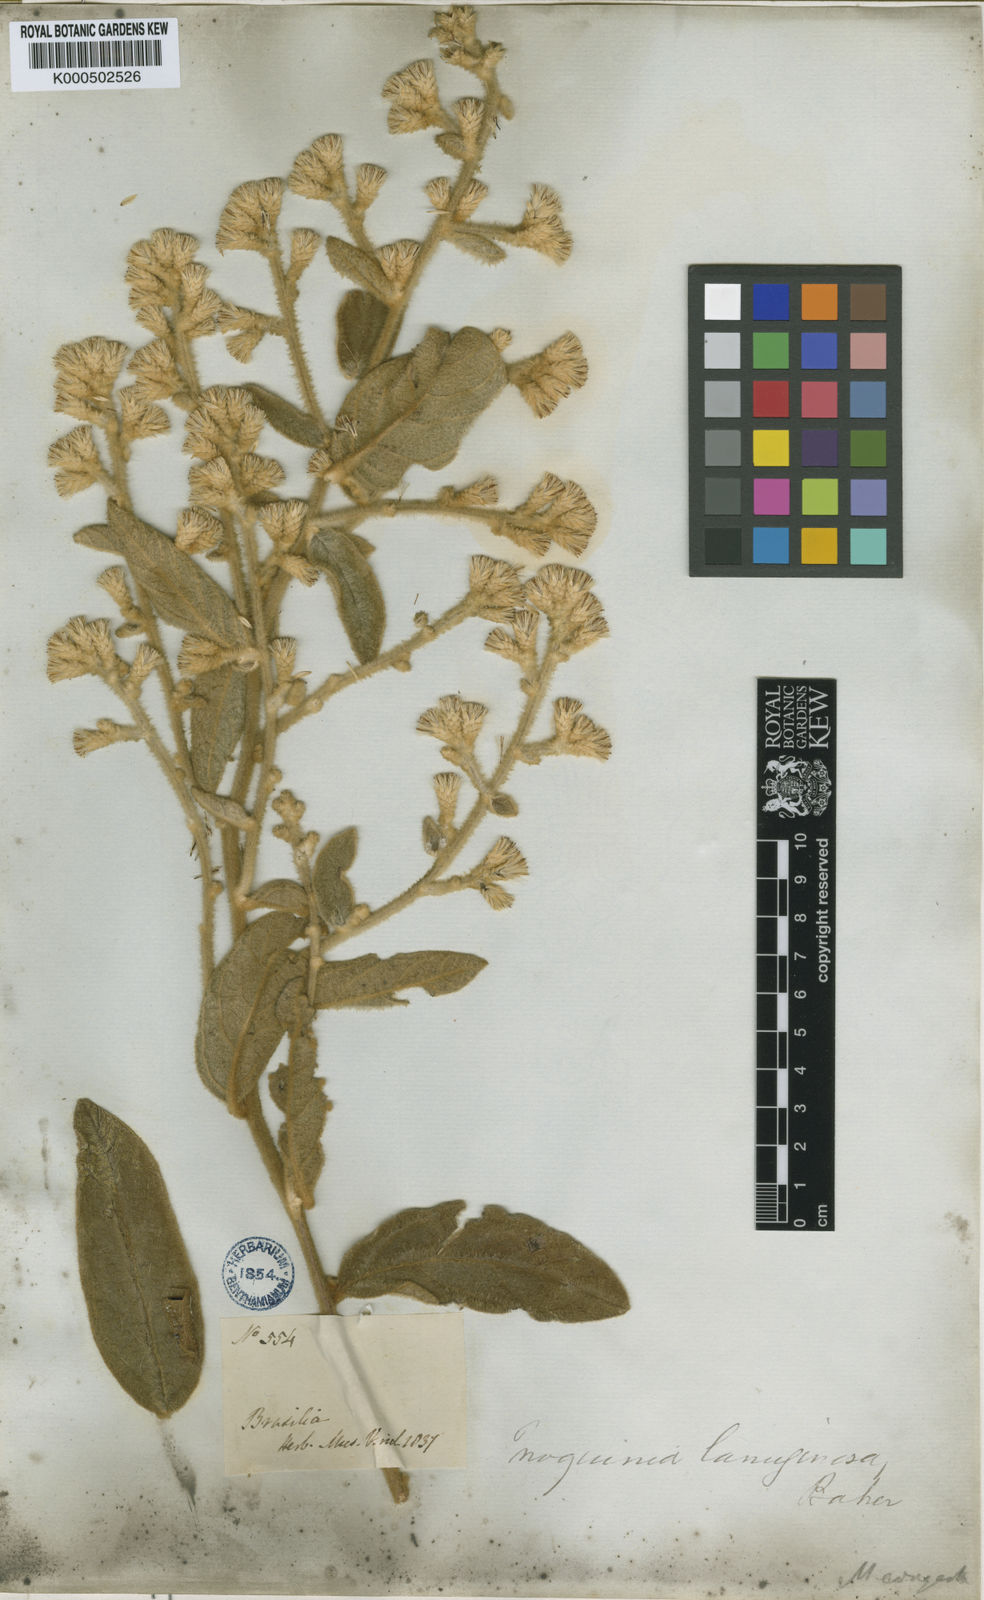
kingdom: Plantae
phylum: Tracheophyta
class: Magnoliopsida
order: Asterales
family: Asteraceae
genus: Moquiniastrum
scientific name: Moquiniastrum paniculatum
